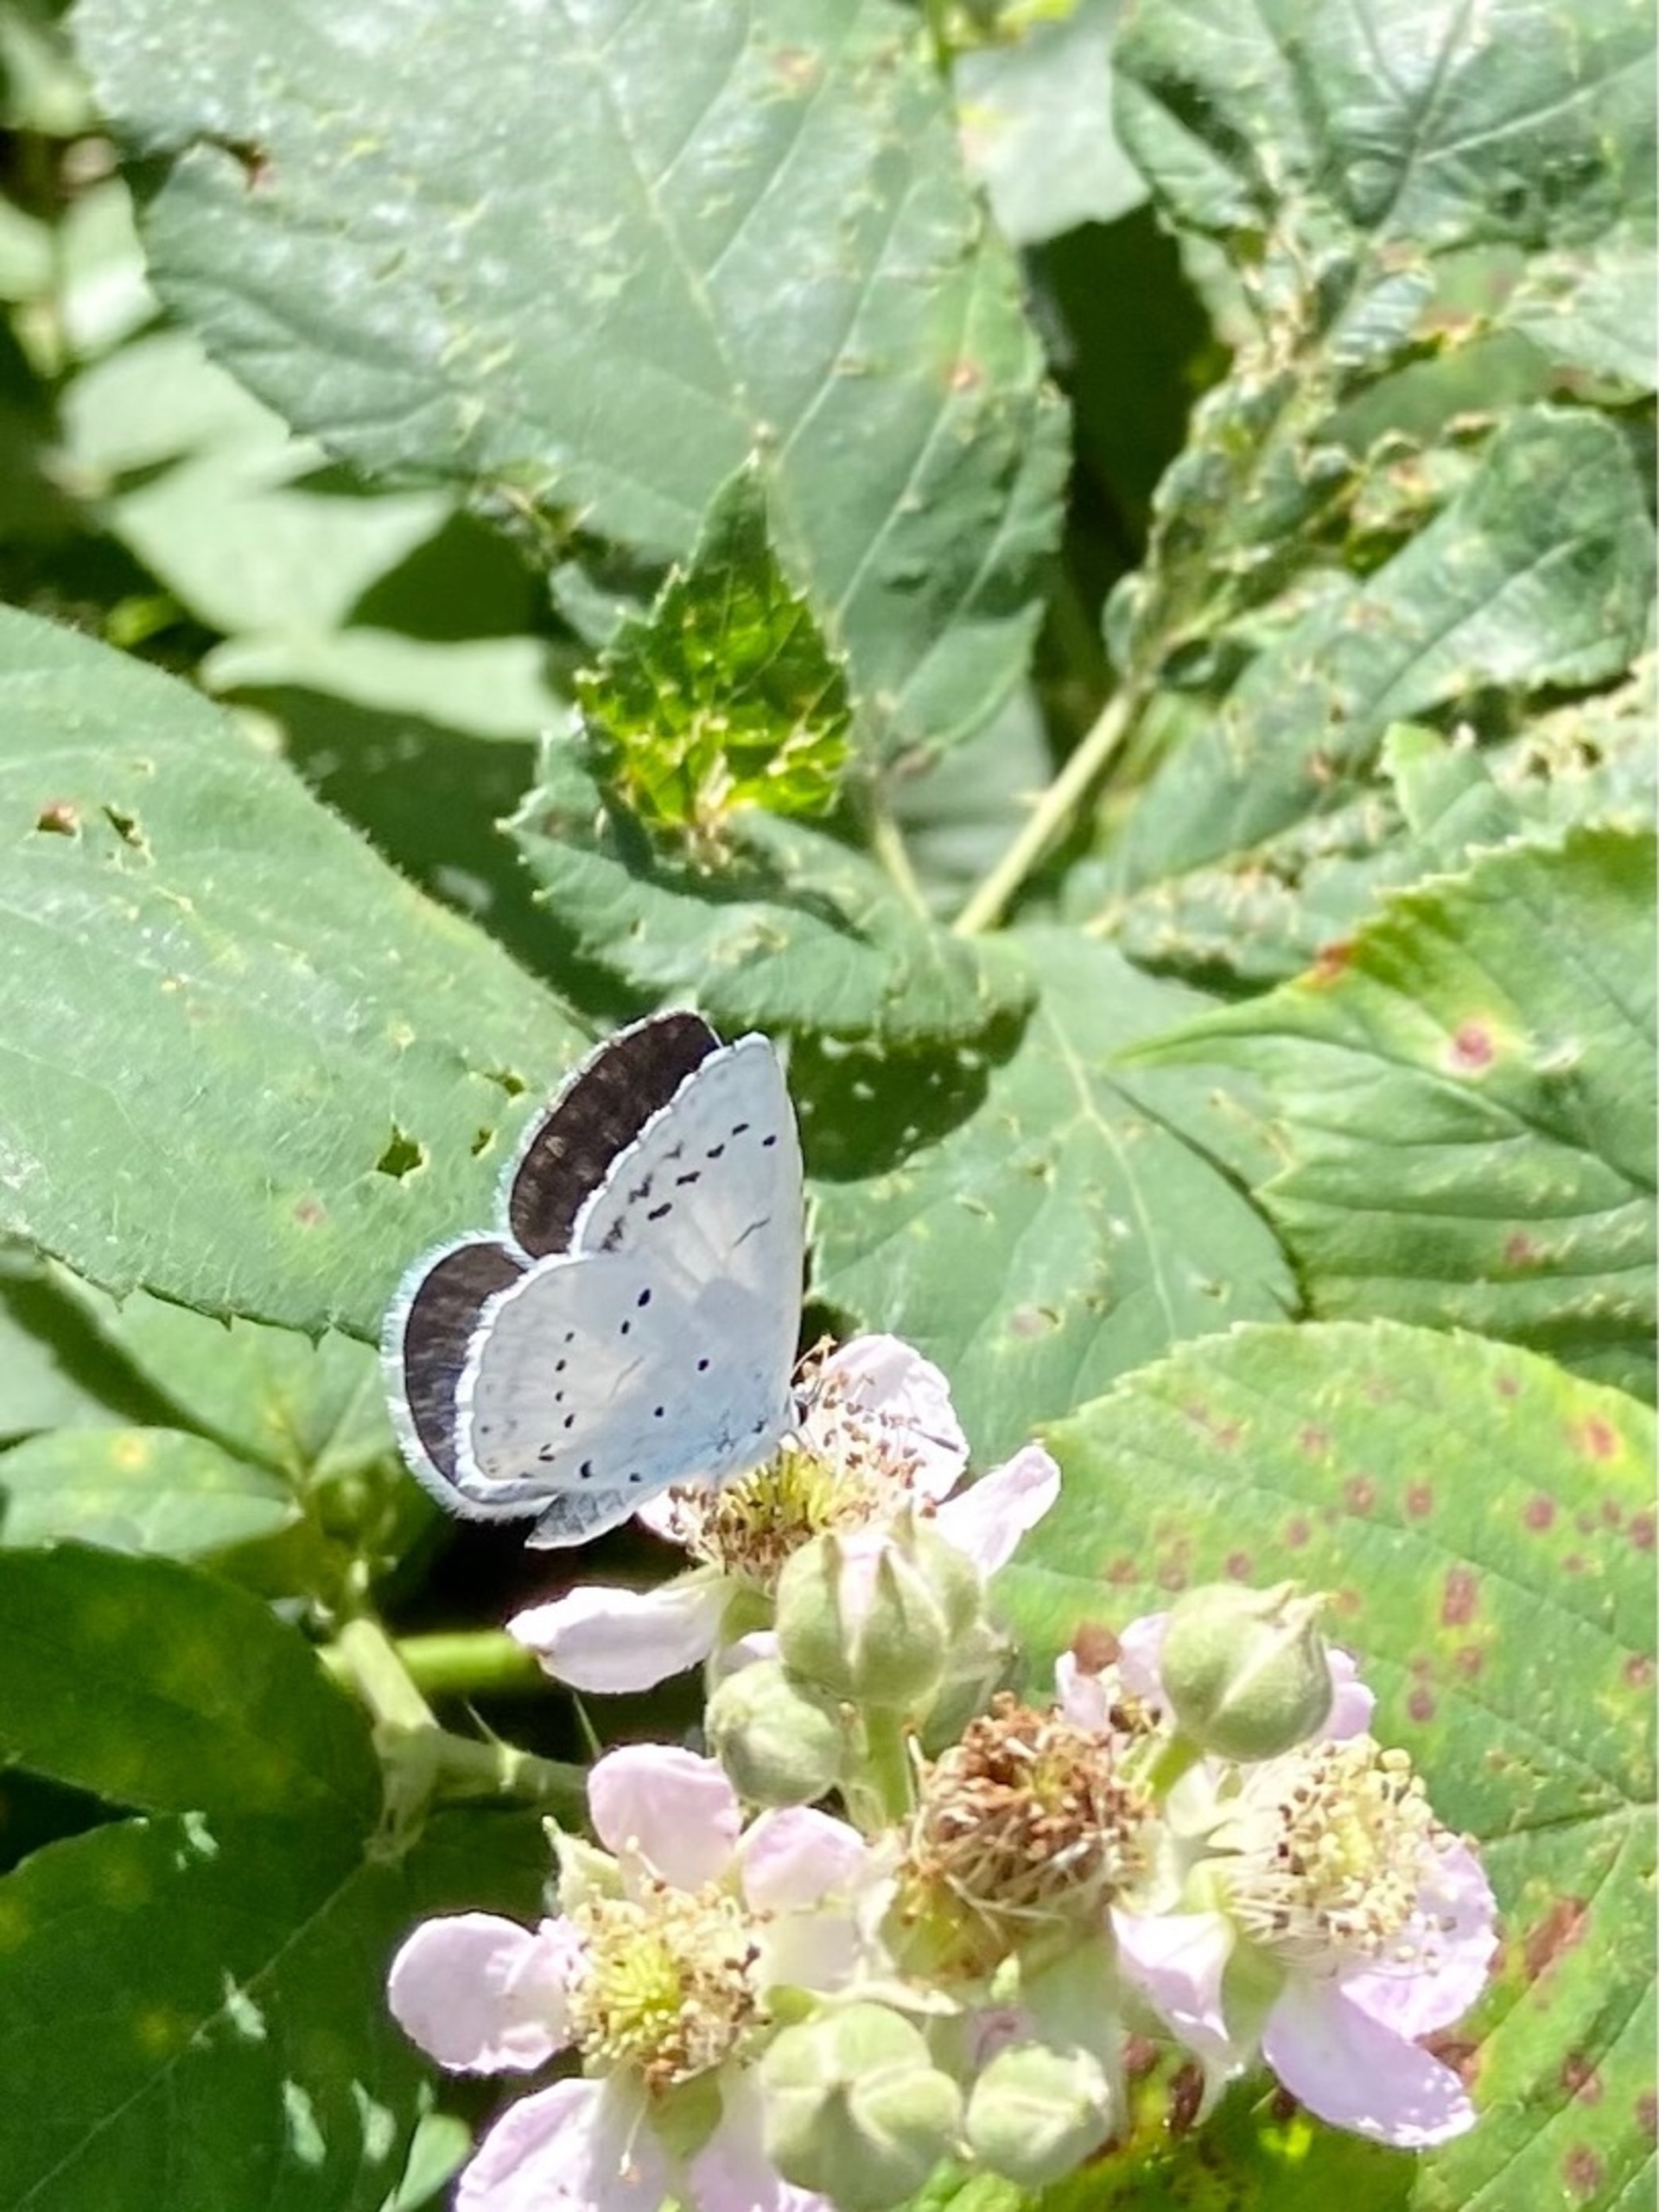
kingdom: Animalia
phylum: Arthropoda
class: Insecta
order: Lepidoptera
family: Lycaenidae
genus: Celastrina
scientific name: Celastrina argiolus
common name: Skovblåfugl
